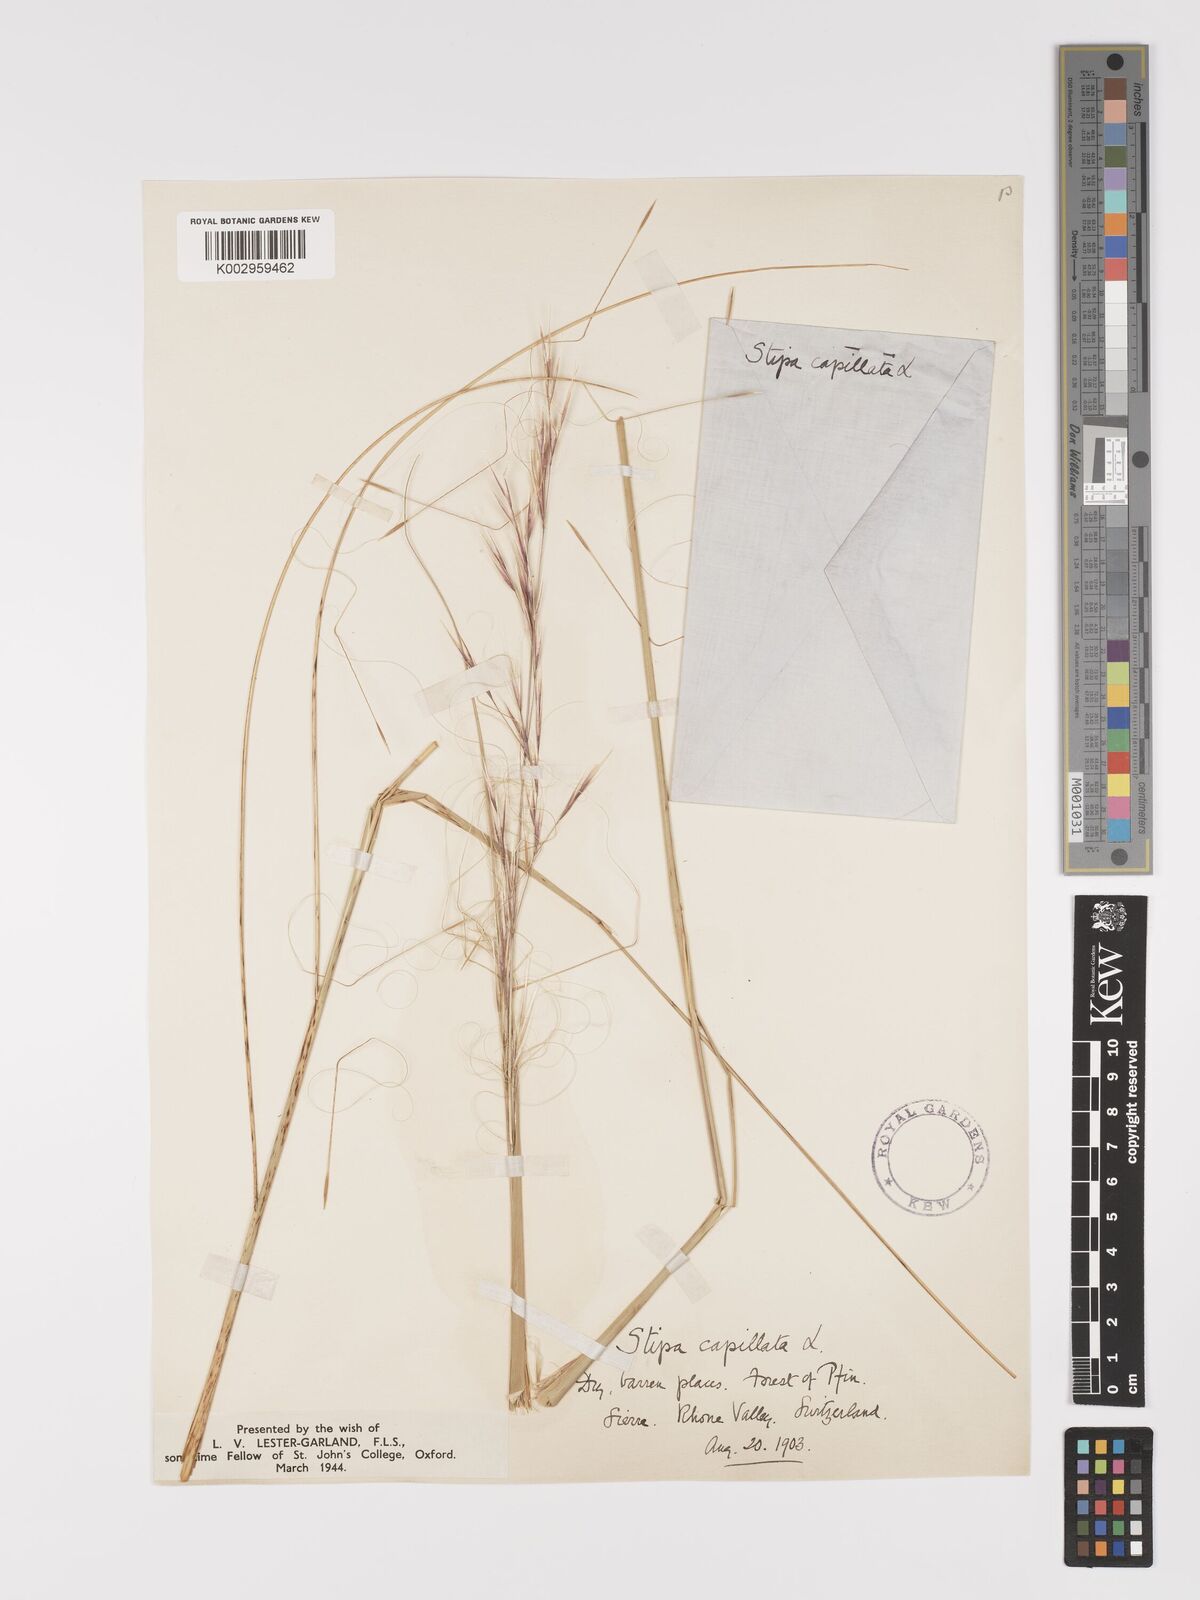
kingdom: Plantae
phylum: Tracheophyta
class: Liliopsida
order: Poales
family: Poaceae
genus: Stipa
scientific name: Stipa capillata
